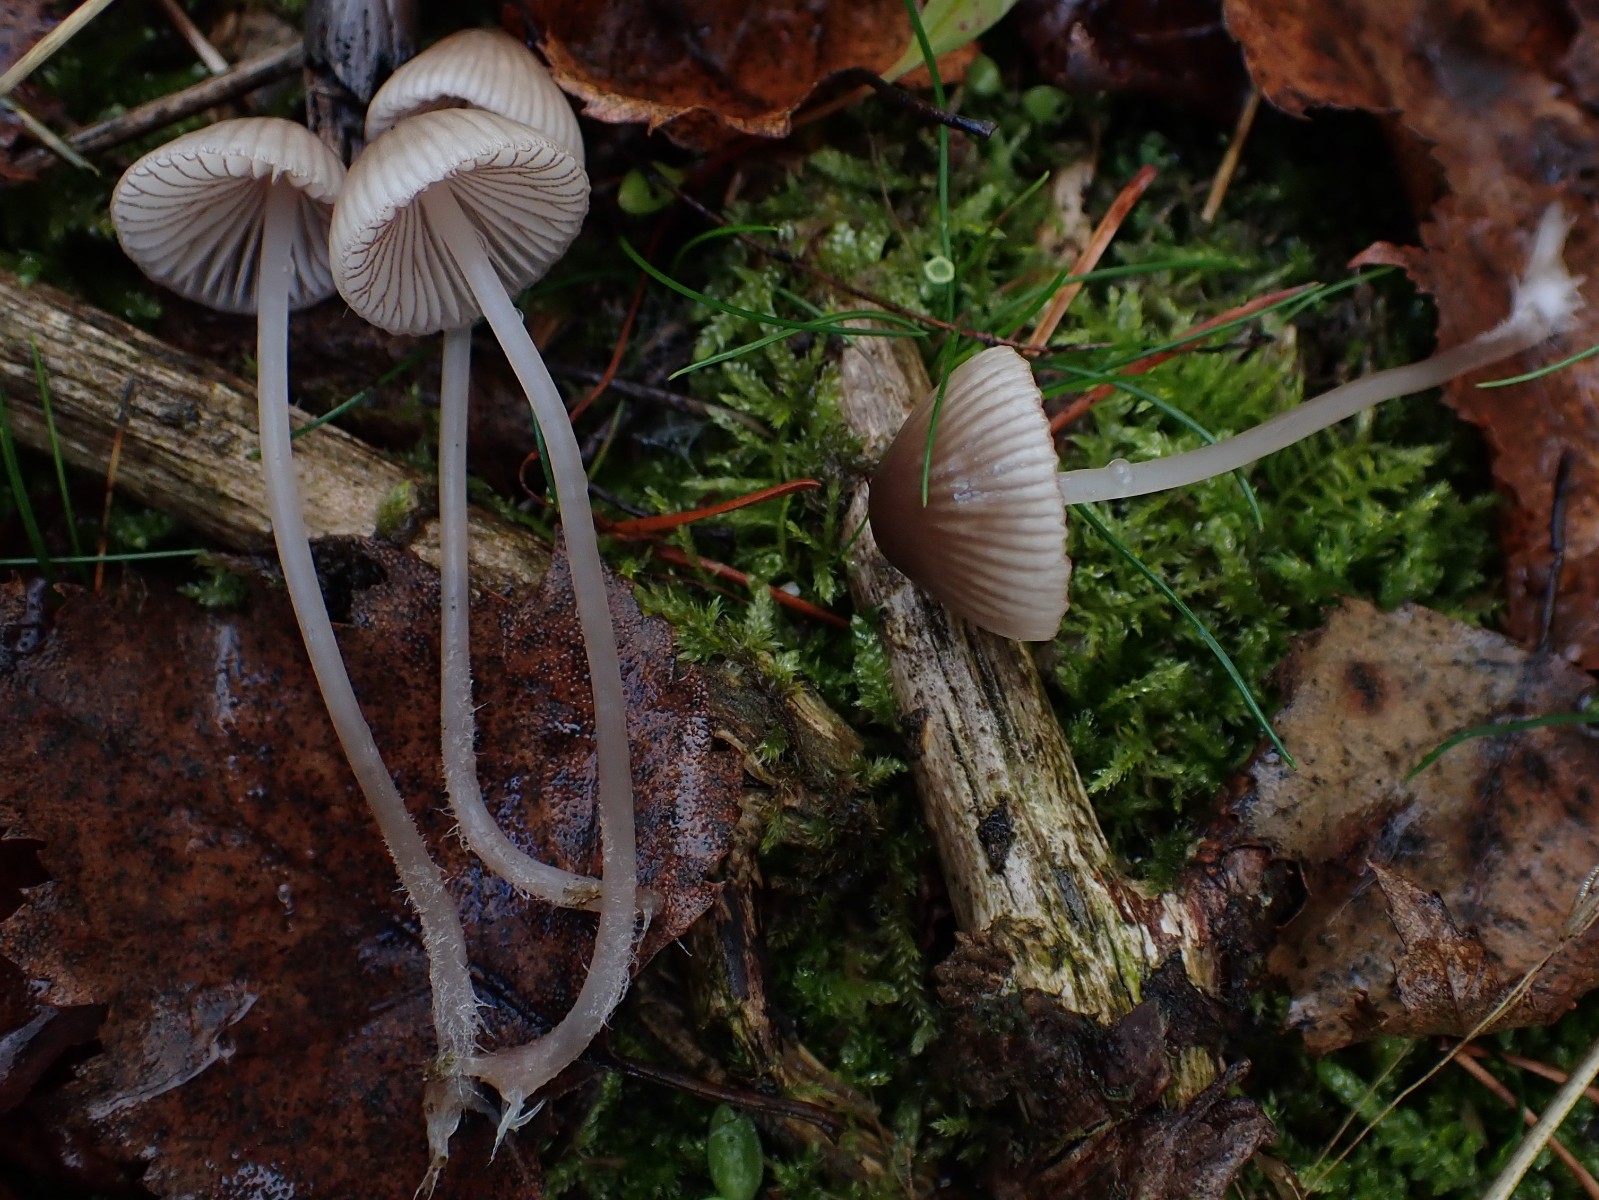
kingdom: Fungi
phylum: Basidiomycota
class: Agaricomycetes
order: Agaricales
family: Mycenaceae
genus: Mycena
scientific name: Mycena rubromarginata
